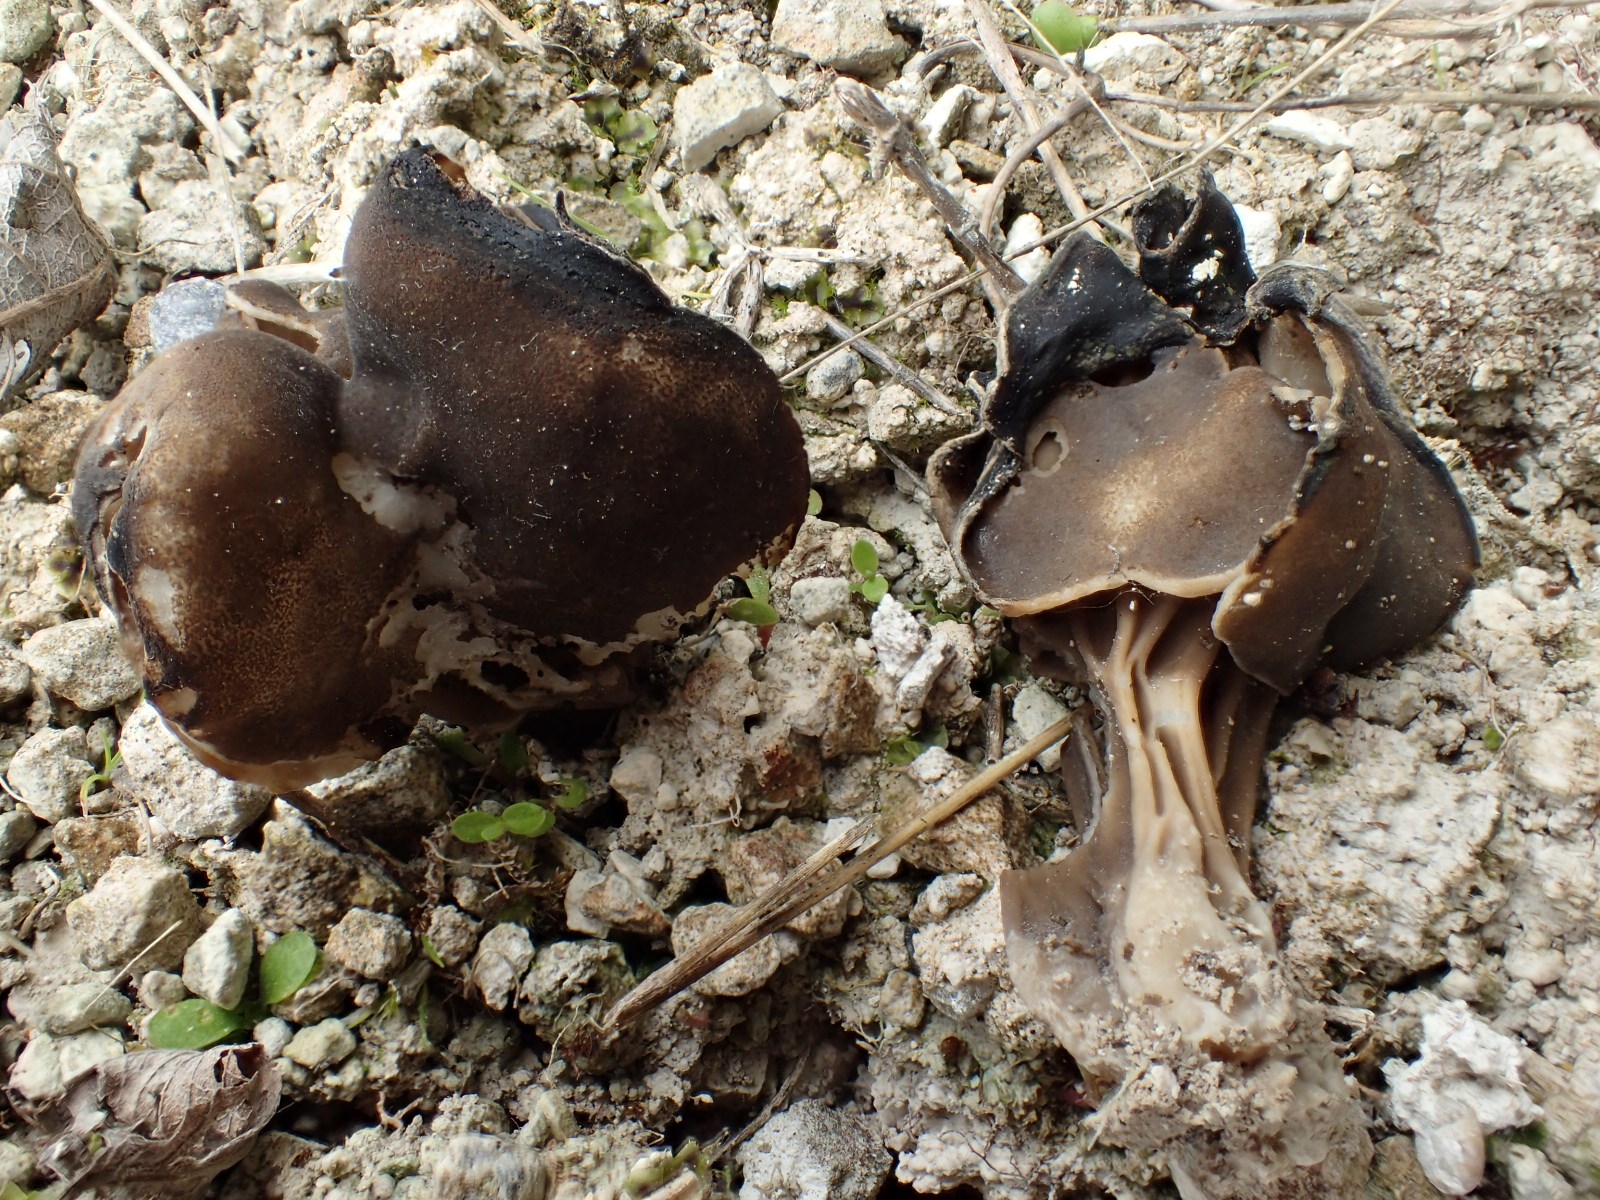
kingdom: Fungi
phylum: Ascomycota
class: Pezizomycetes
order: Pezizales
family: Helvellaceae
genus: Helvella
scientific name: Helvella lacunosa
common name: grubet foldhat
